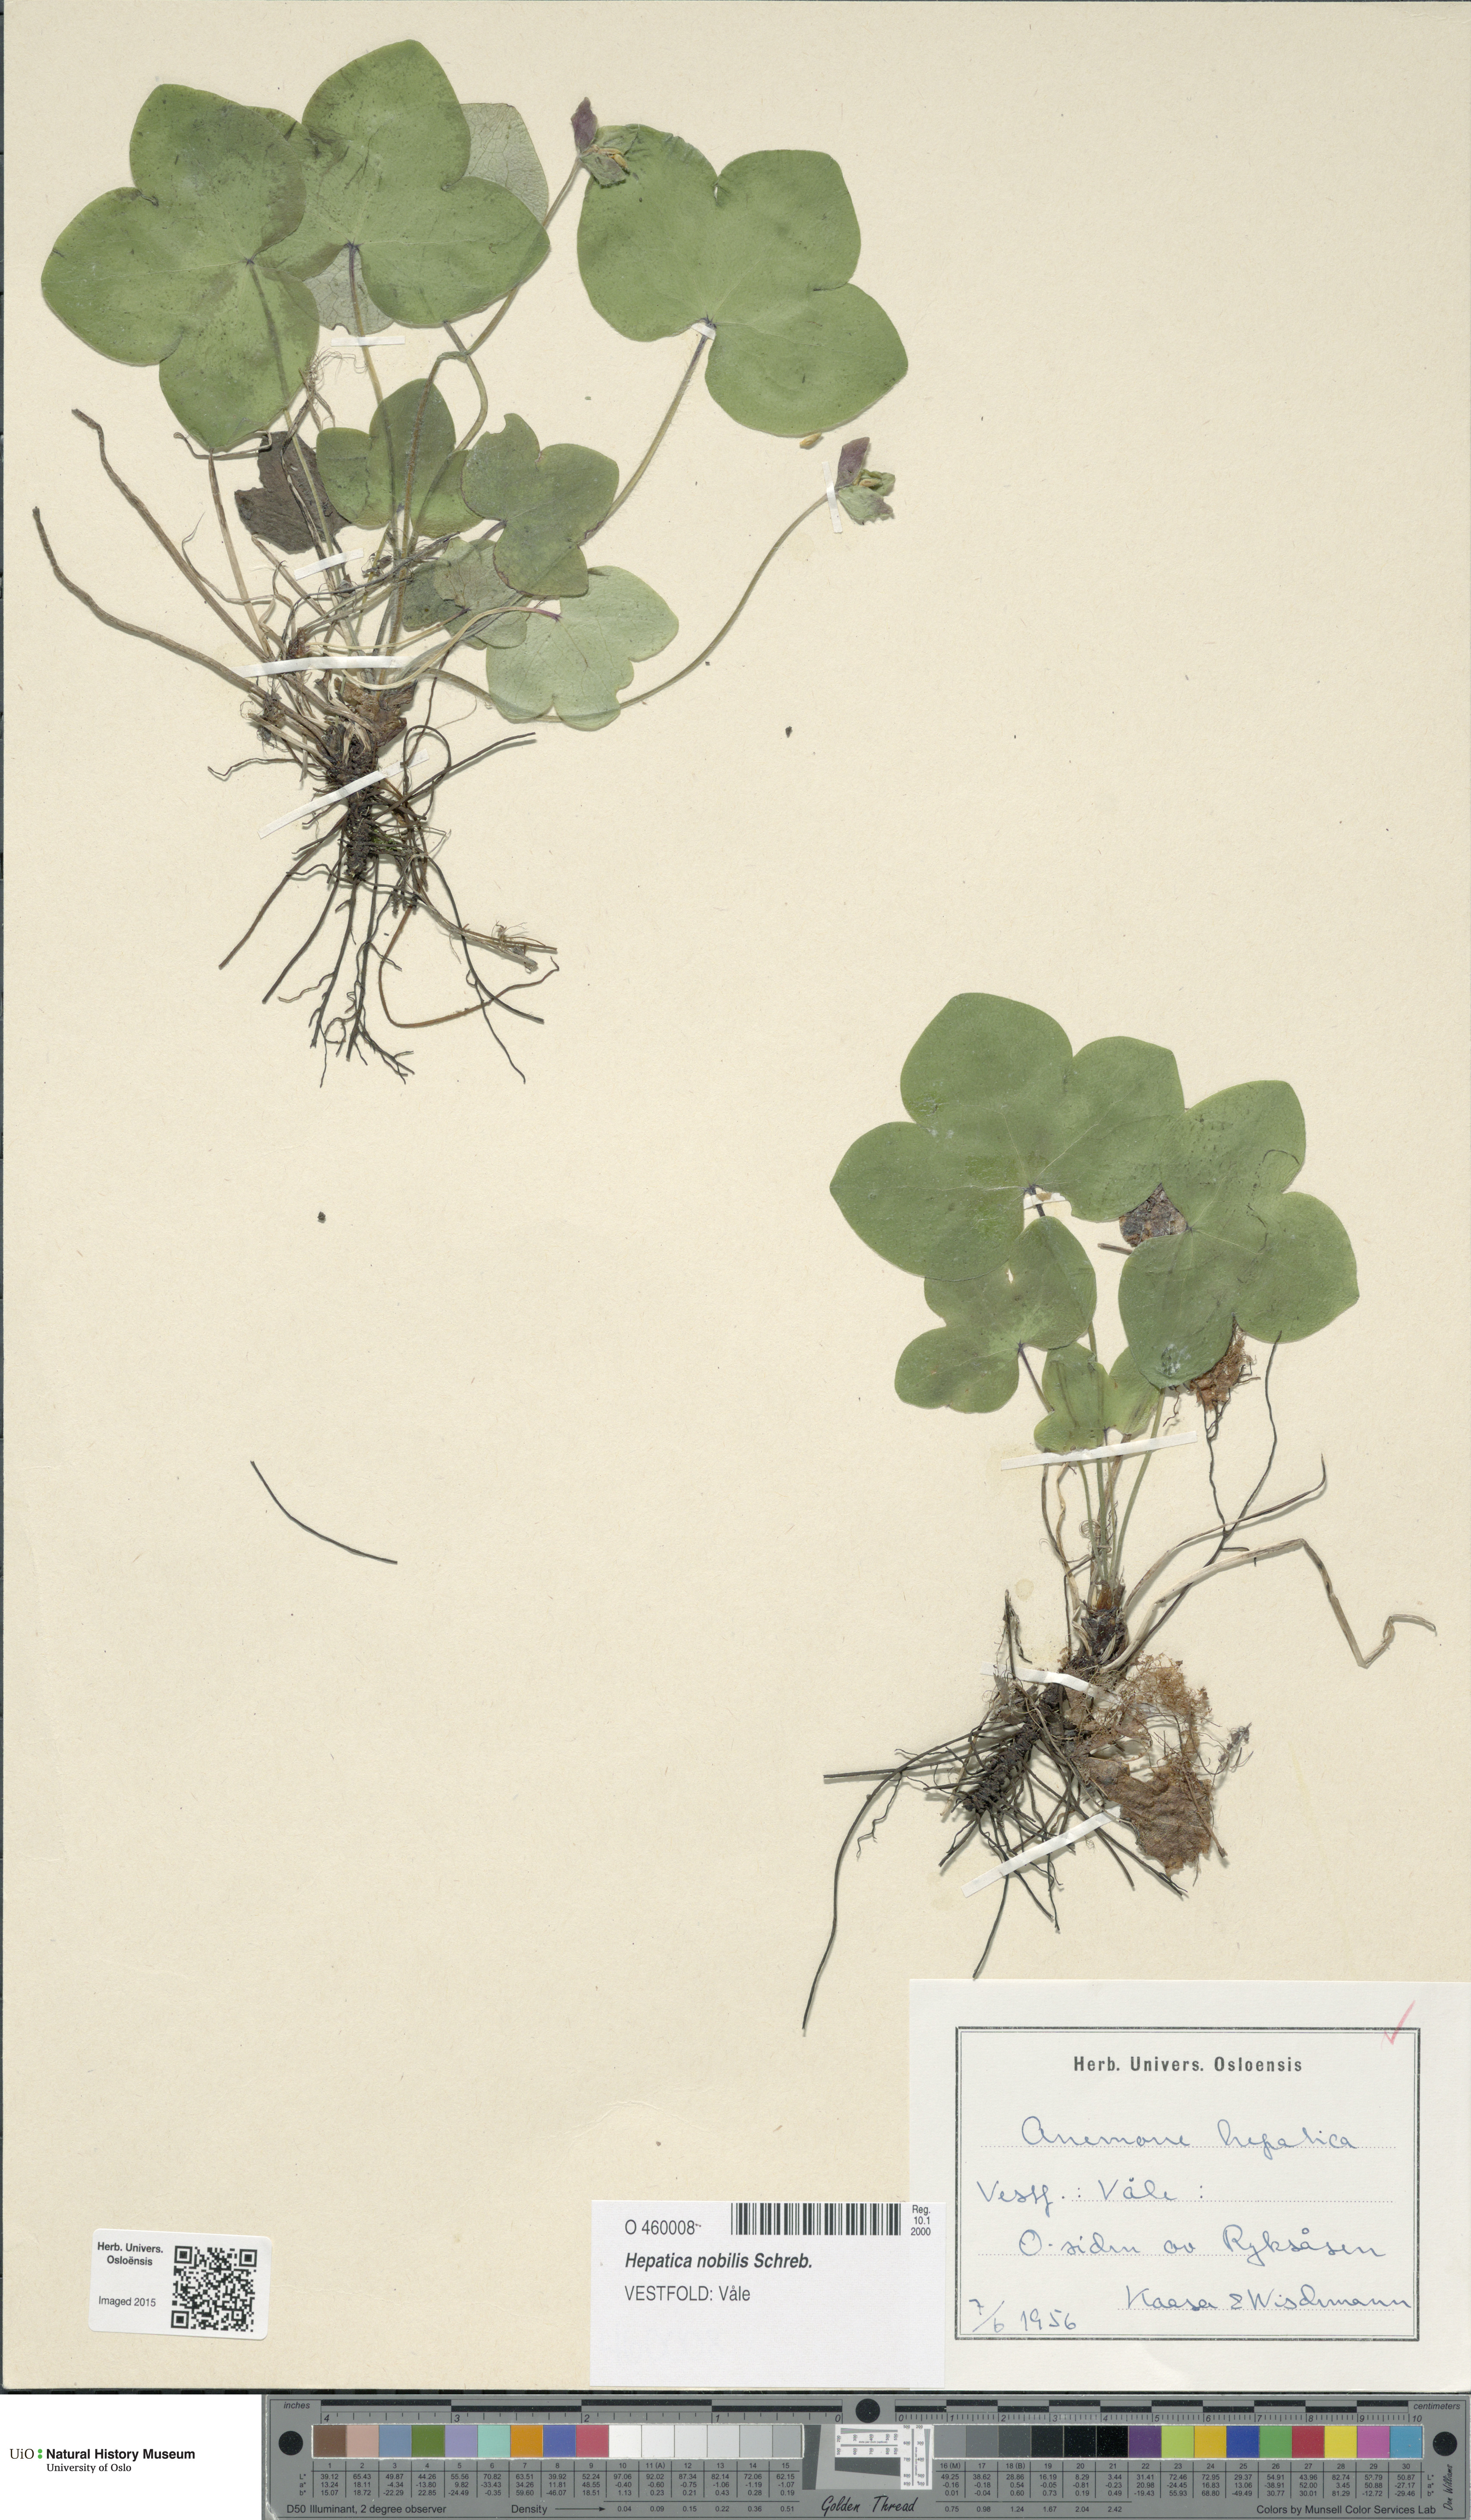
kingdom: Plantae
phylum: Tracheophyta
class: Magnoliopsida
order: Ranunculales
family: Ranunculaceae
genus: Hepatica
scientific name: Hepatica nobilis
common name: Liverleaf
